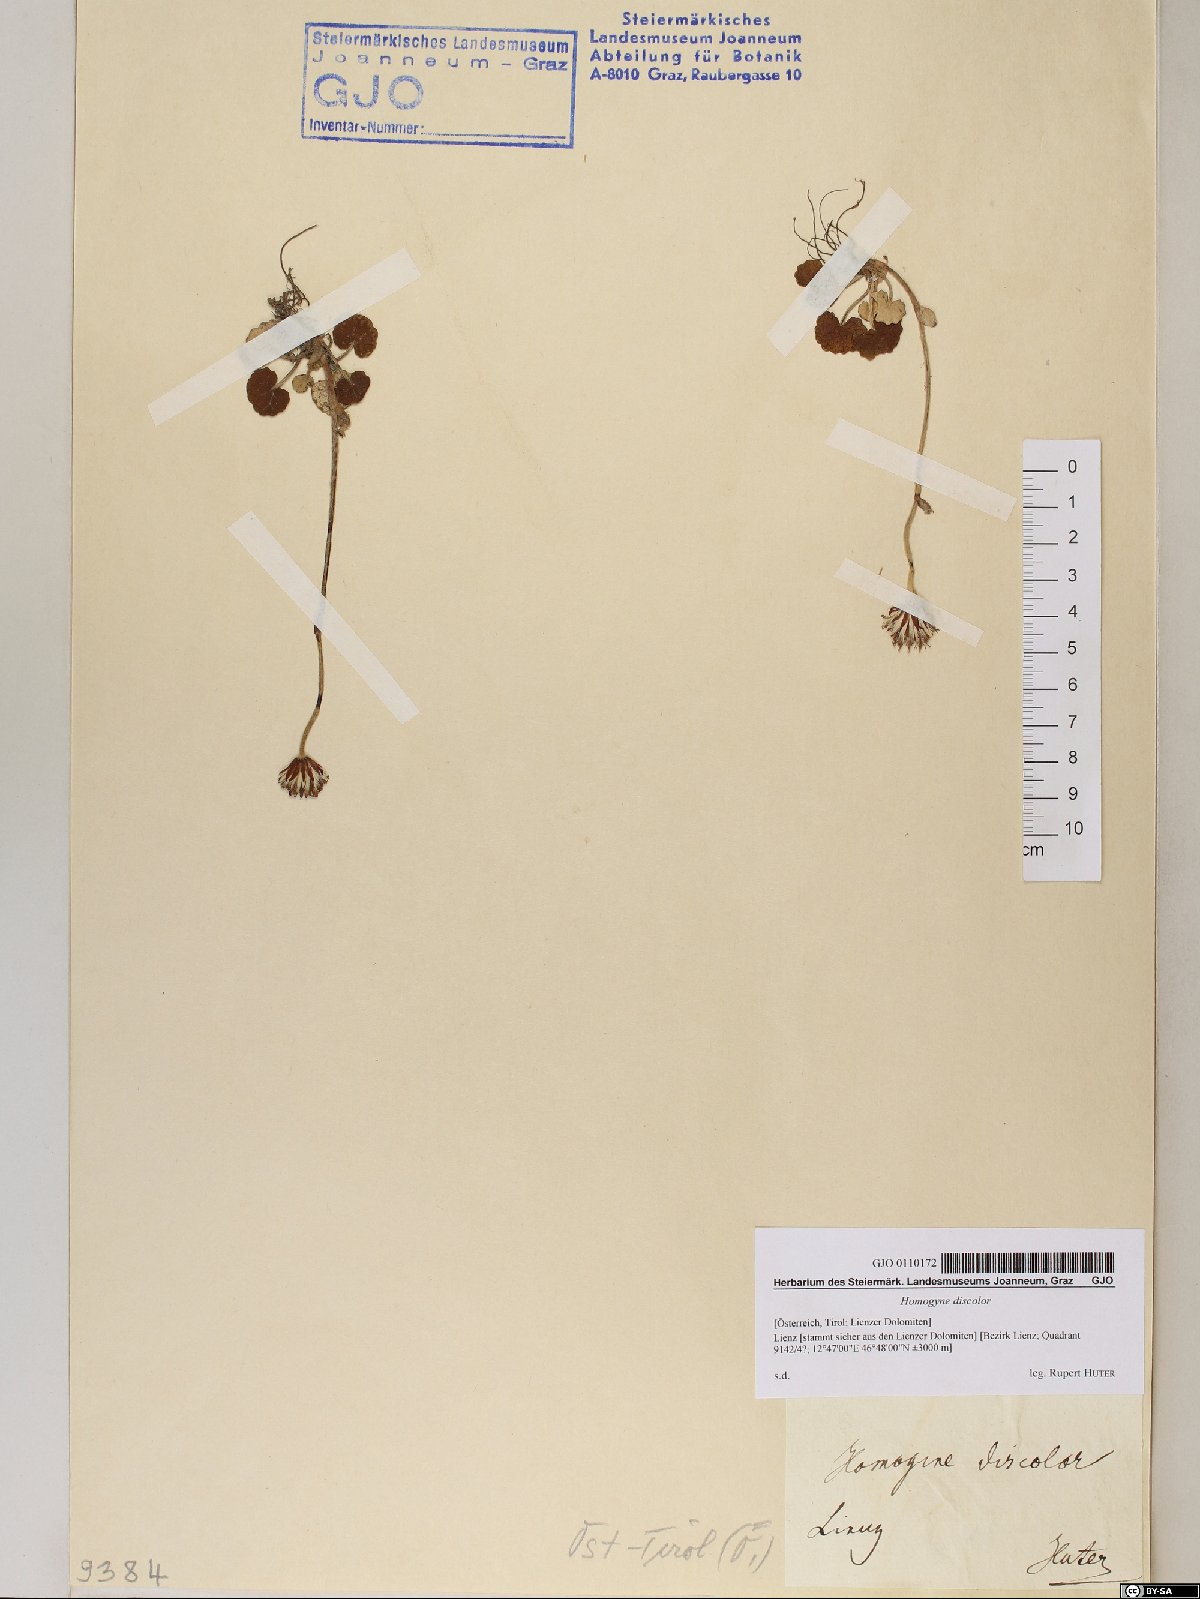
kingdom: Plantae
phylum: Tracheophyta
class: Magnoliopsida
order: Asterales
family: Asteraceae
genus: Homogyne
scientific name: Homogyne discolor
